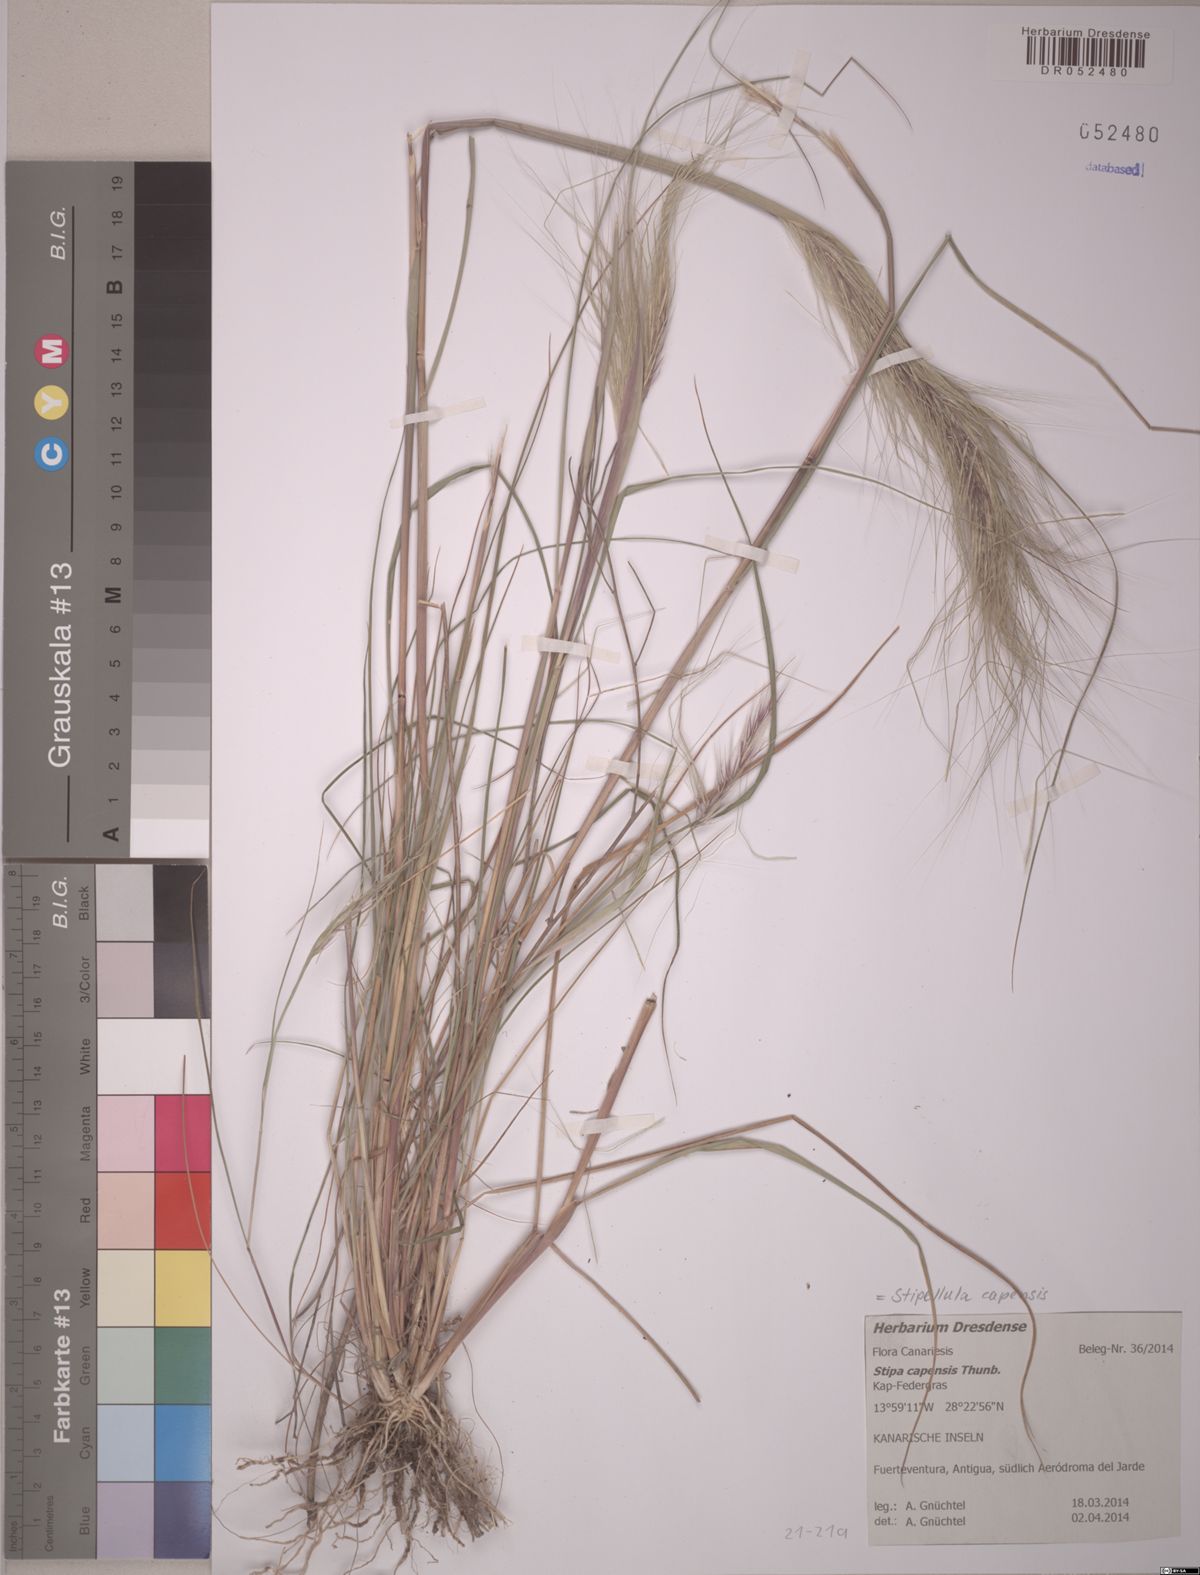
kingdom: Plantae
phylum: Tracheophyta
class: Liliopsida
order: Poales
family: Poaceae
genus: Stipellula
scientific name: Stipellula capensis
